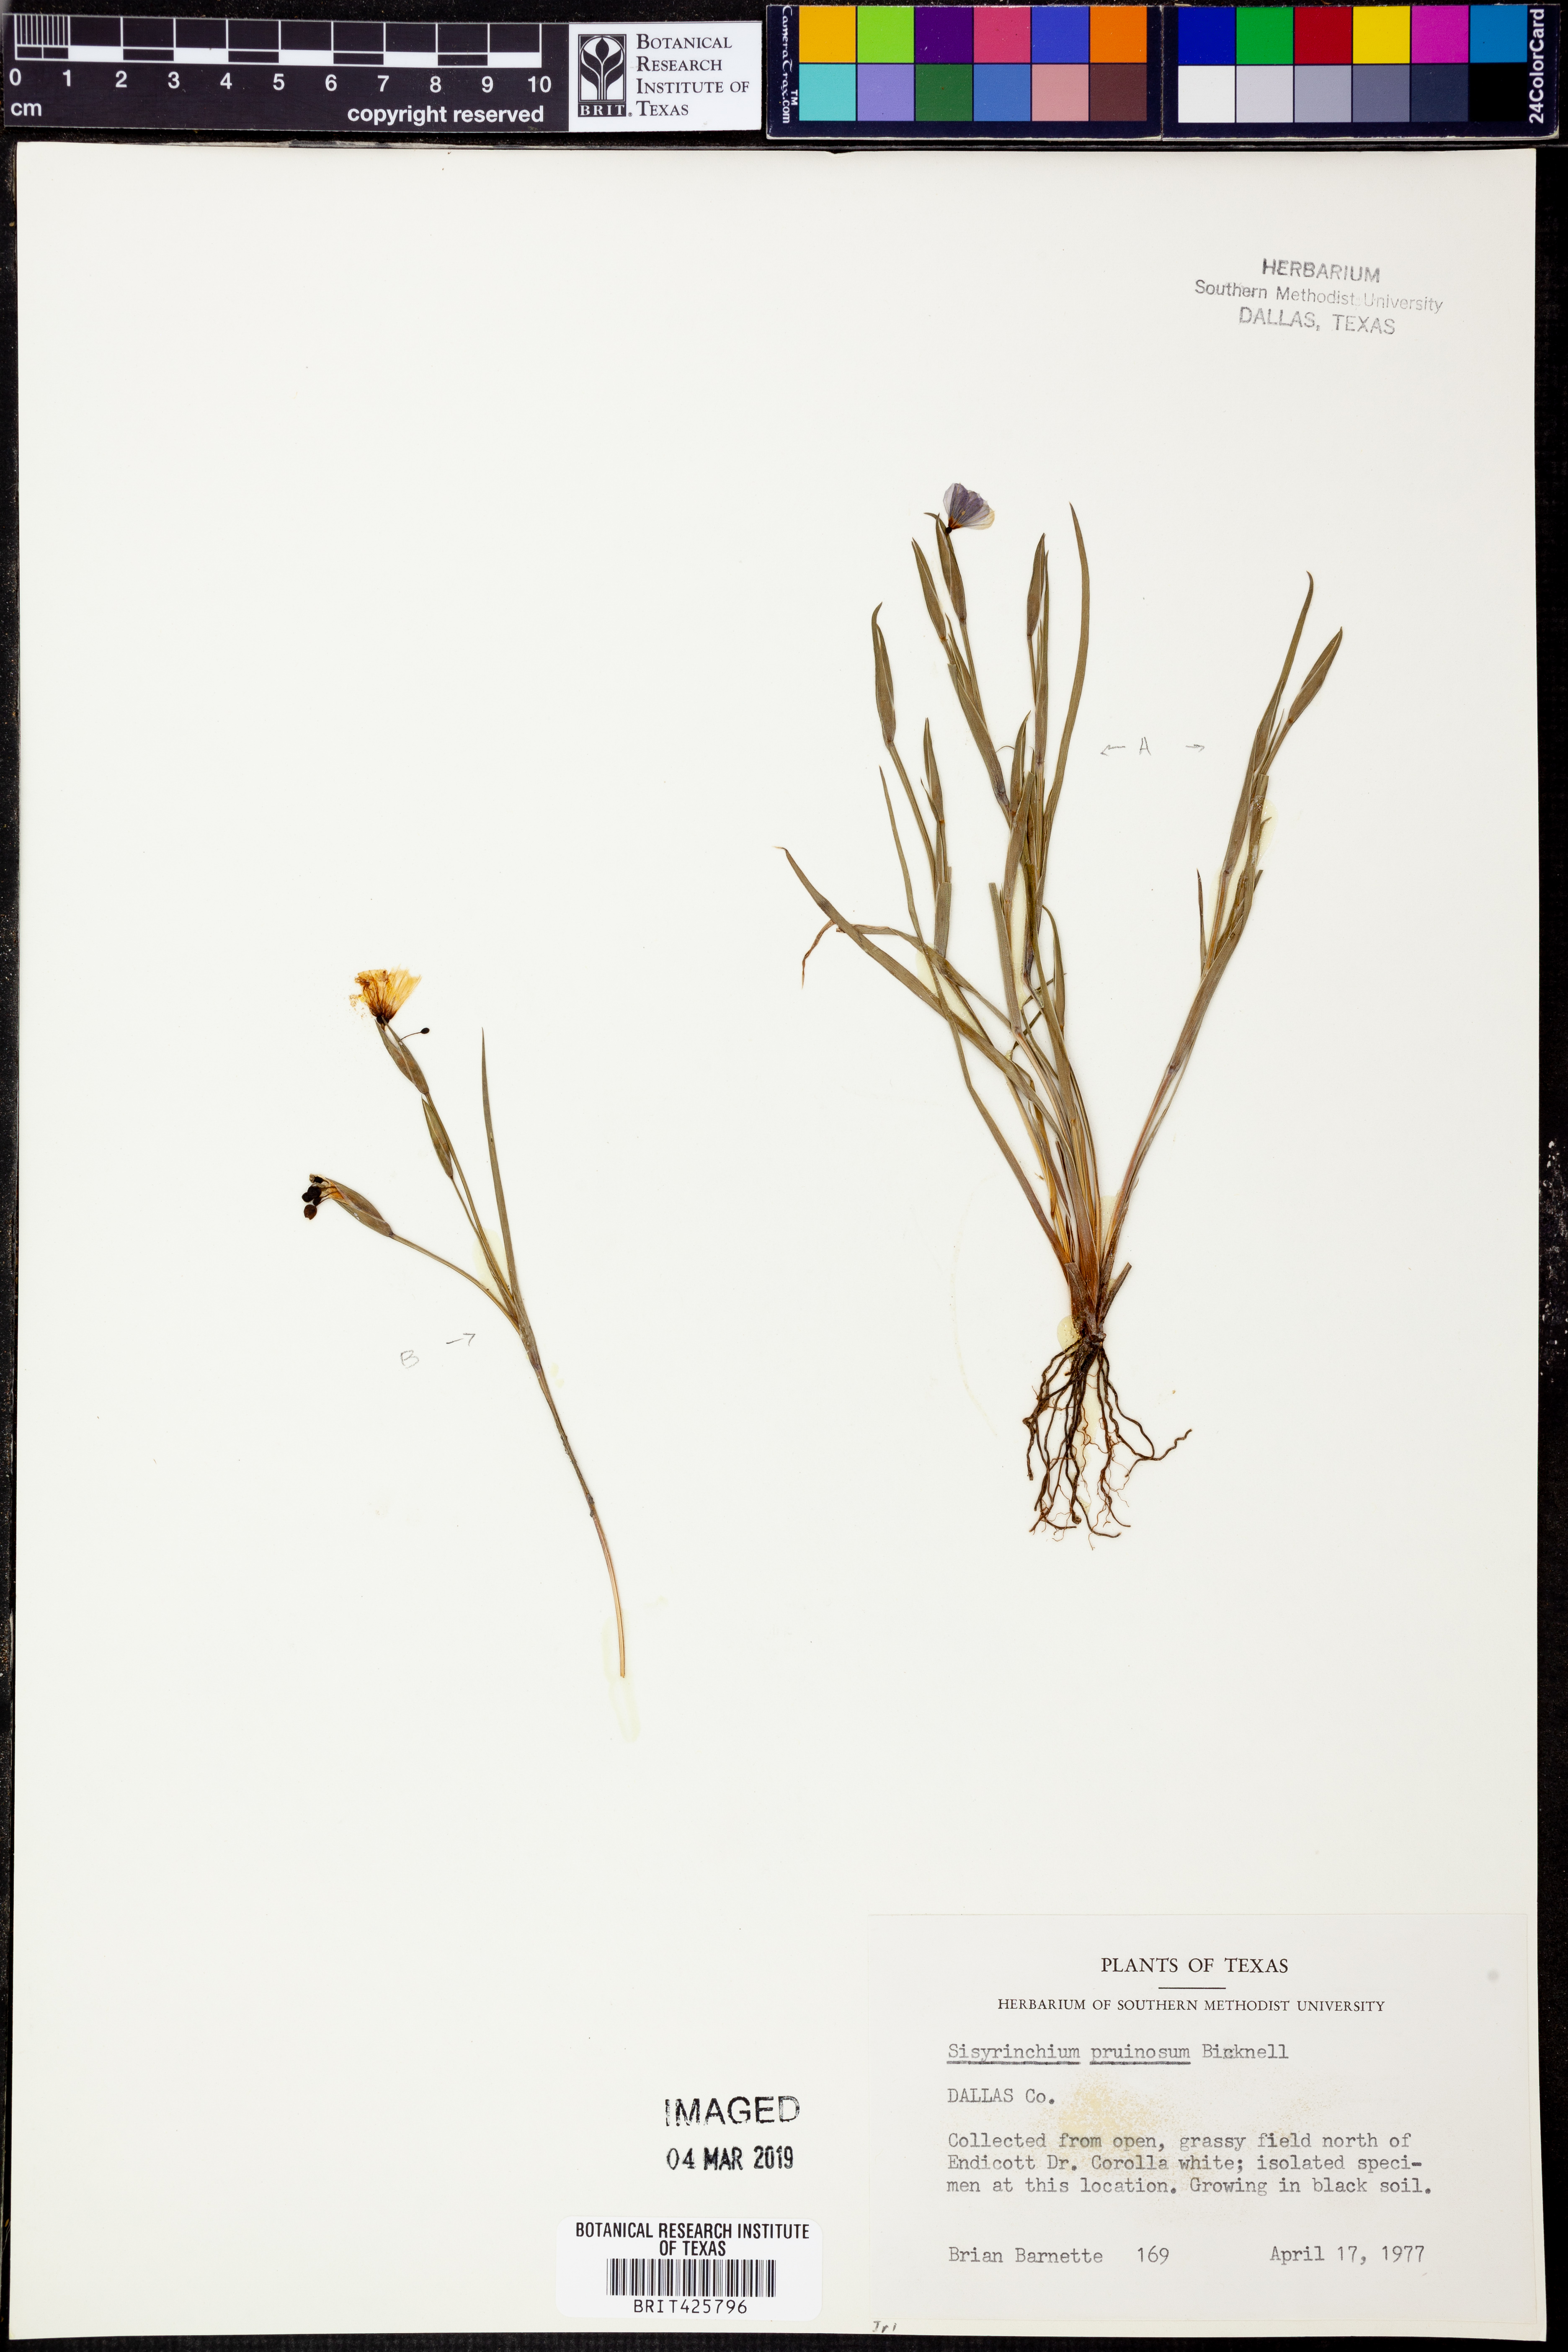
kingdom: Plantae
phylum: Tracheophyta
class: Liliopsida
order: Asparagales
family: Iridaceae
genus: Sisyrinchium
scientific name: Sisyrinchium pruinosum
